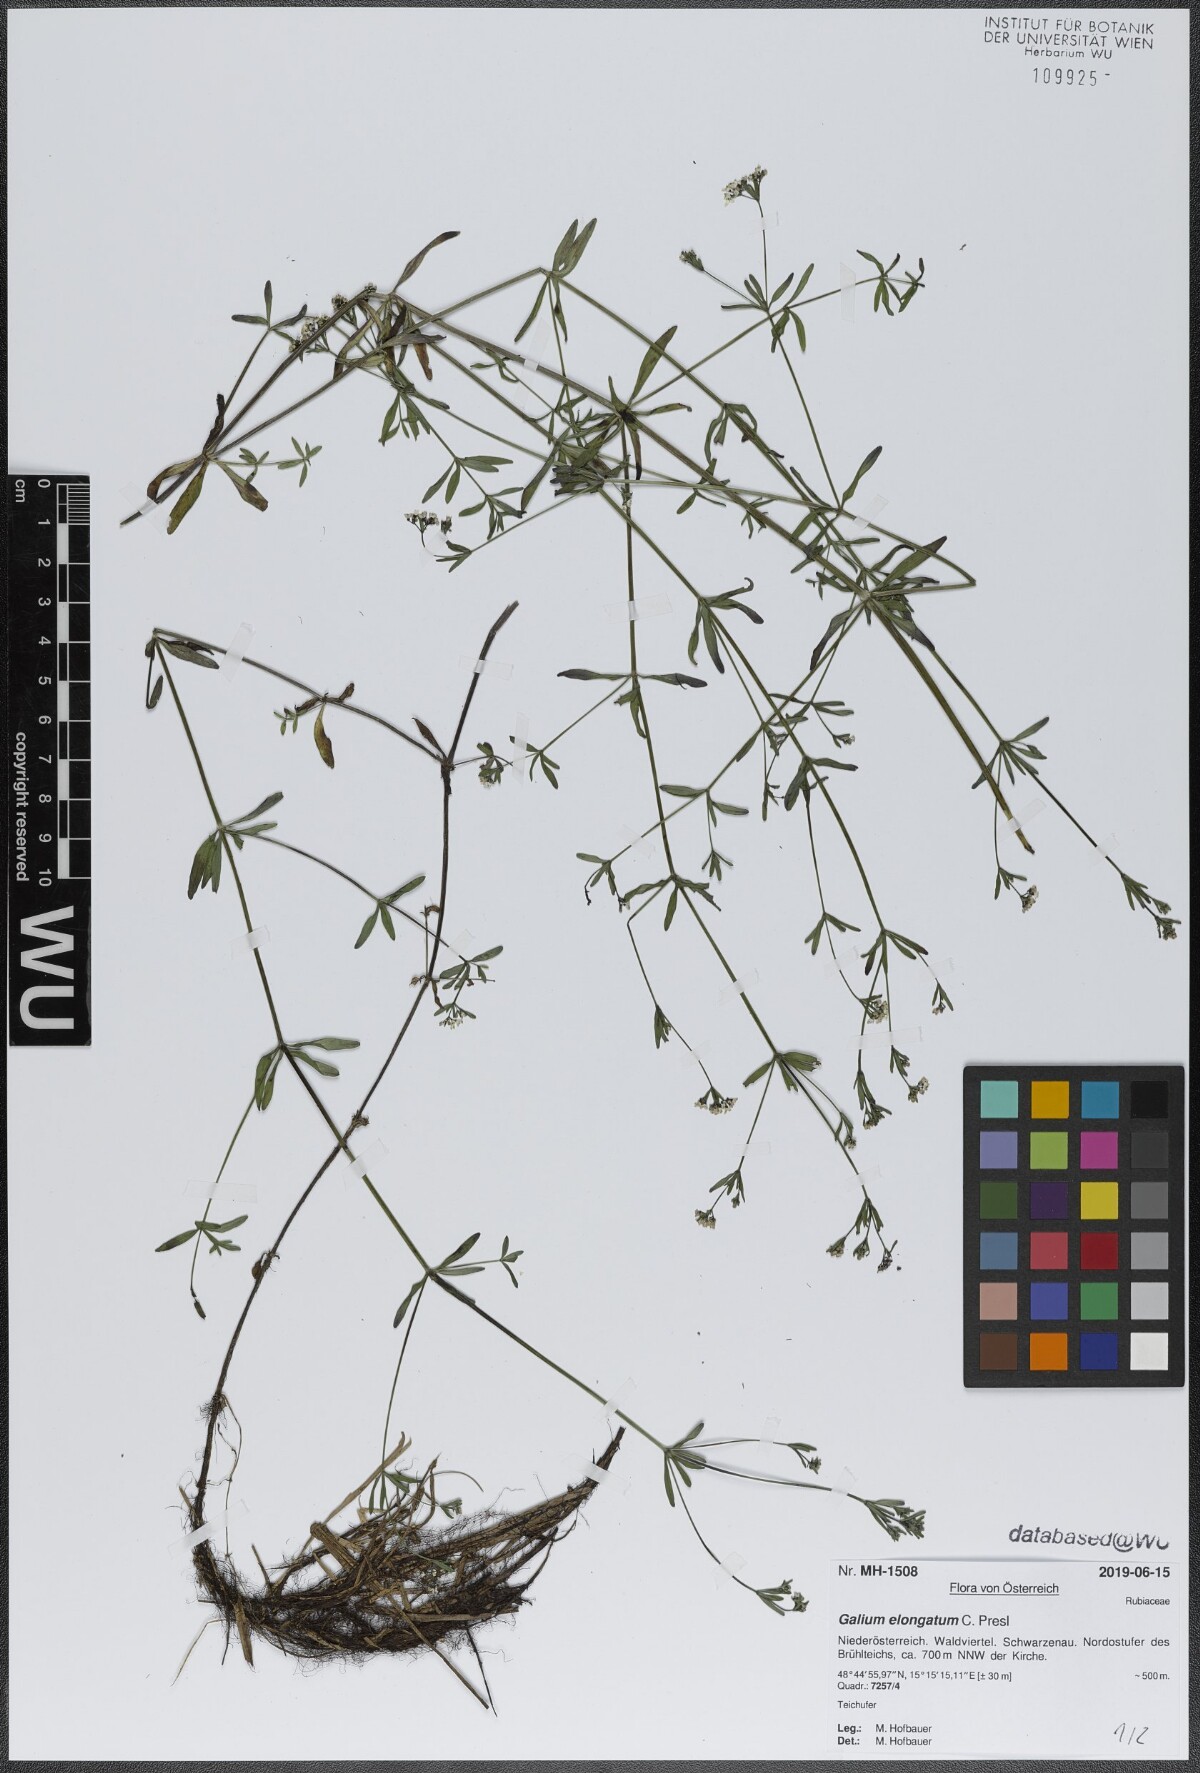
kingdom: Plantae
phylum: Tracheophyta
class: Magnoliopsida
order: Gentianales
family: Rubiaceae
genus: Galium
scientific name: Galium elongatum
